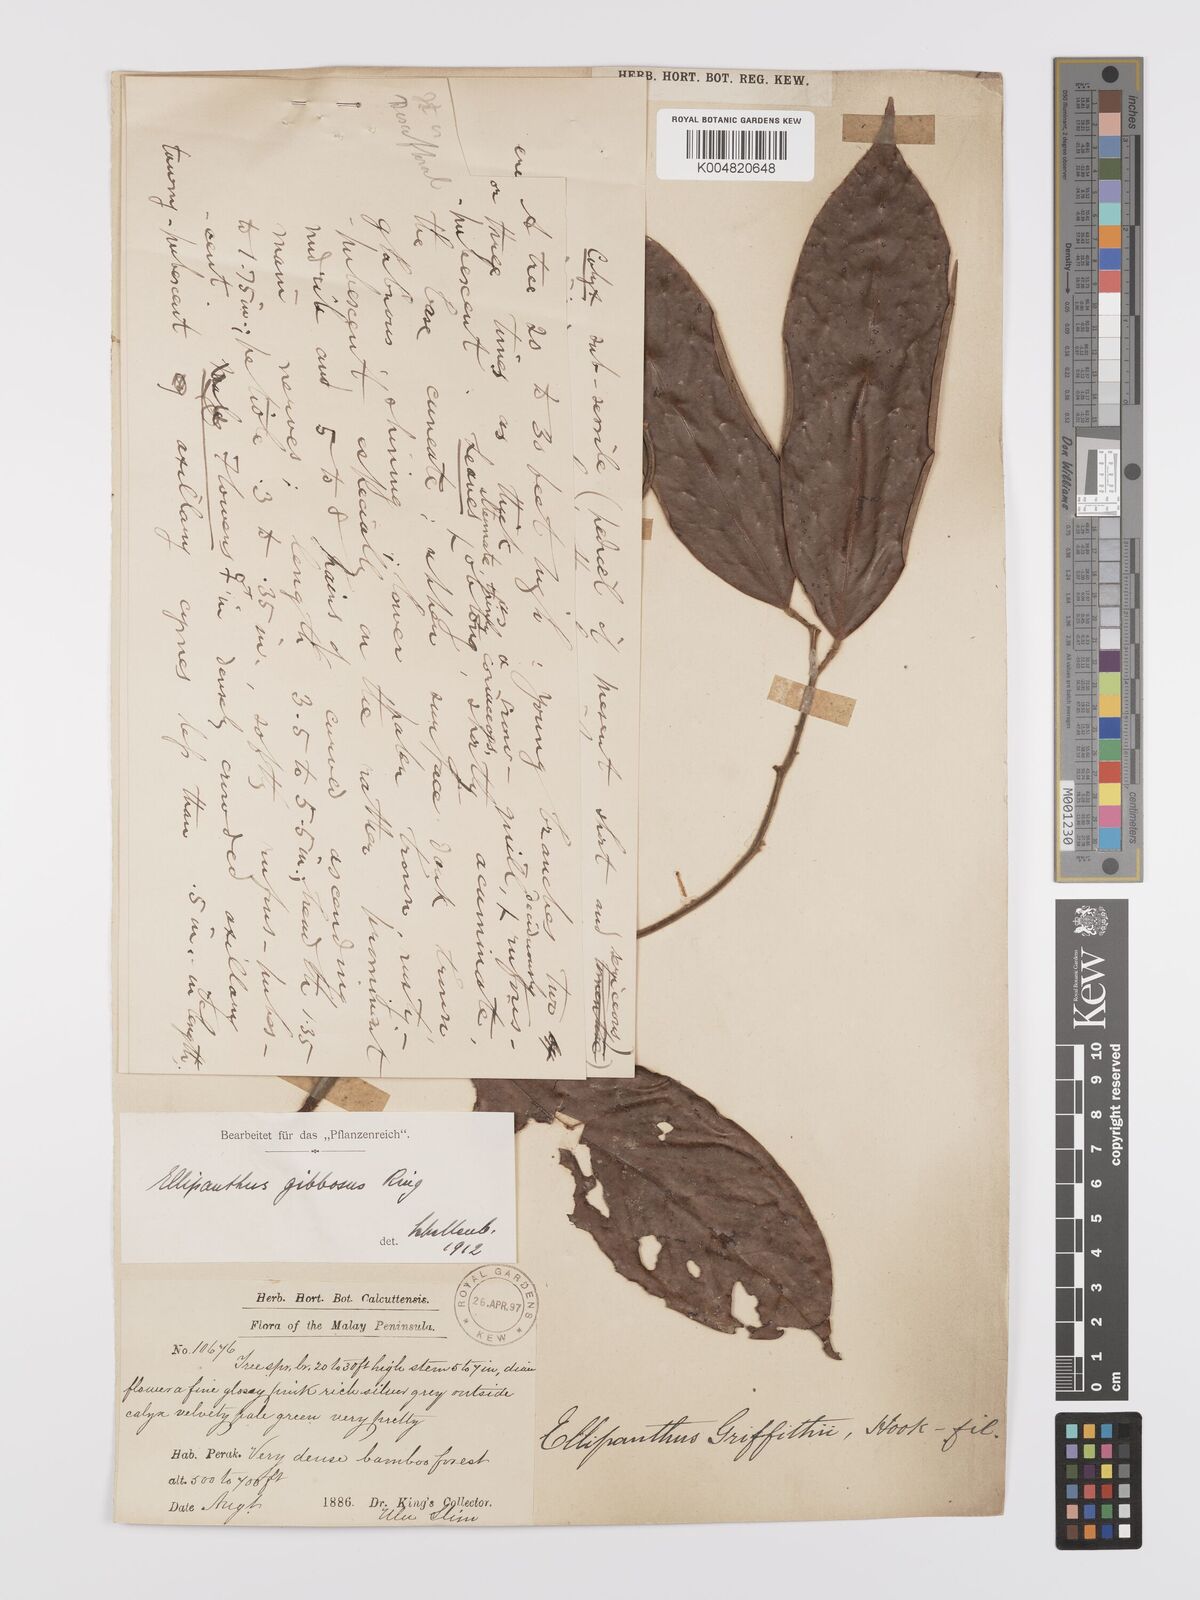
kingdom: Plantae
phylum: Tracheophyta
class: Magnoliopsida
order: Oxalidales
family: Connaraceae
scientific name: Connaraceae
